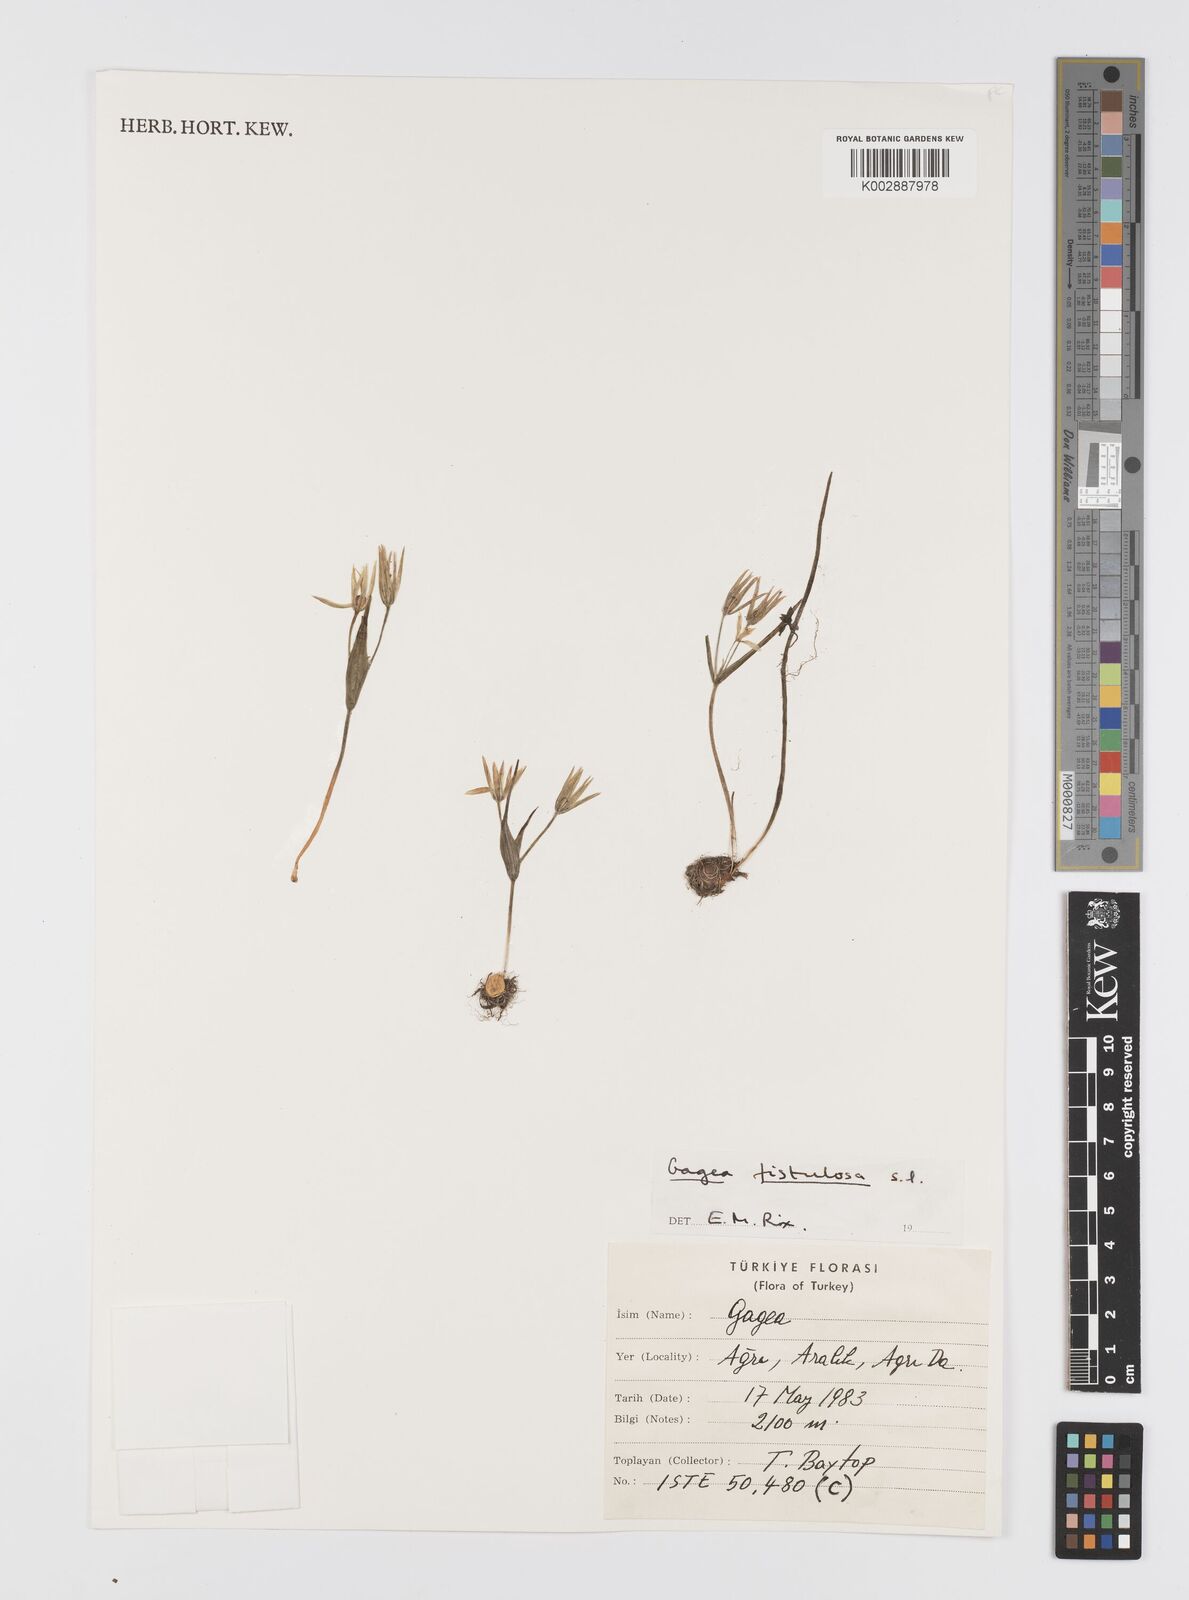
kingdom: Plantae
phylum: Tracheophyta
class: Liliopsida
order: Liliales
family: Liliaceae
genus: Gagea
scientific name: Gagea bohemica
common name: Early star-of-bethlehem
